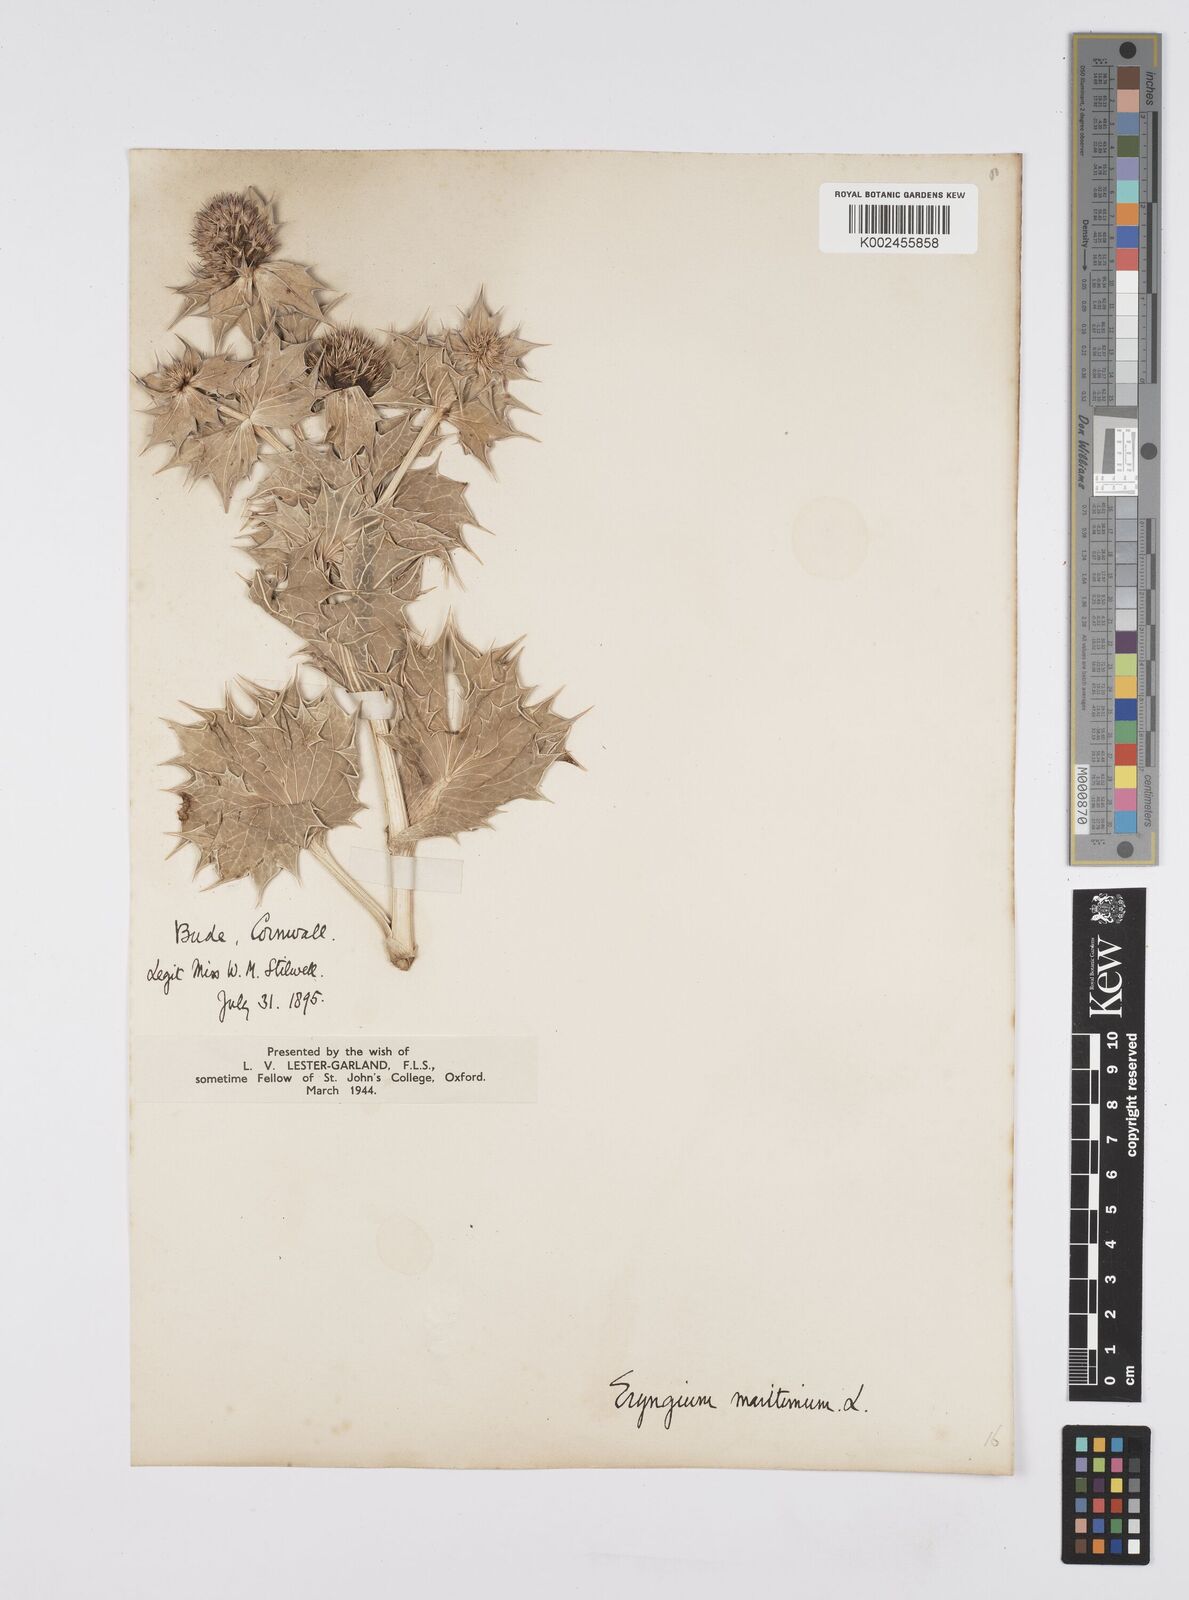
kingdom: Plantae
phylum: Tracheophyta
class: Magnoliopsida
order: Apiales
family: Apiaceae
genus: Eryngium
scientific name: Eryngium maritimum
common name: Sea-holly
